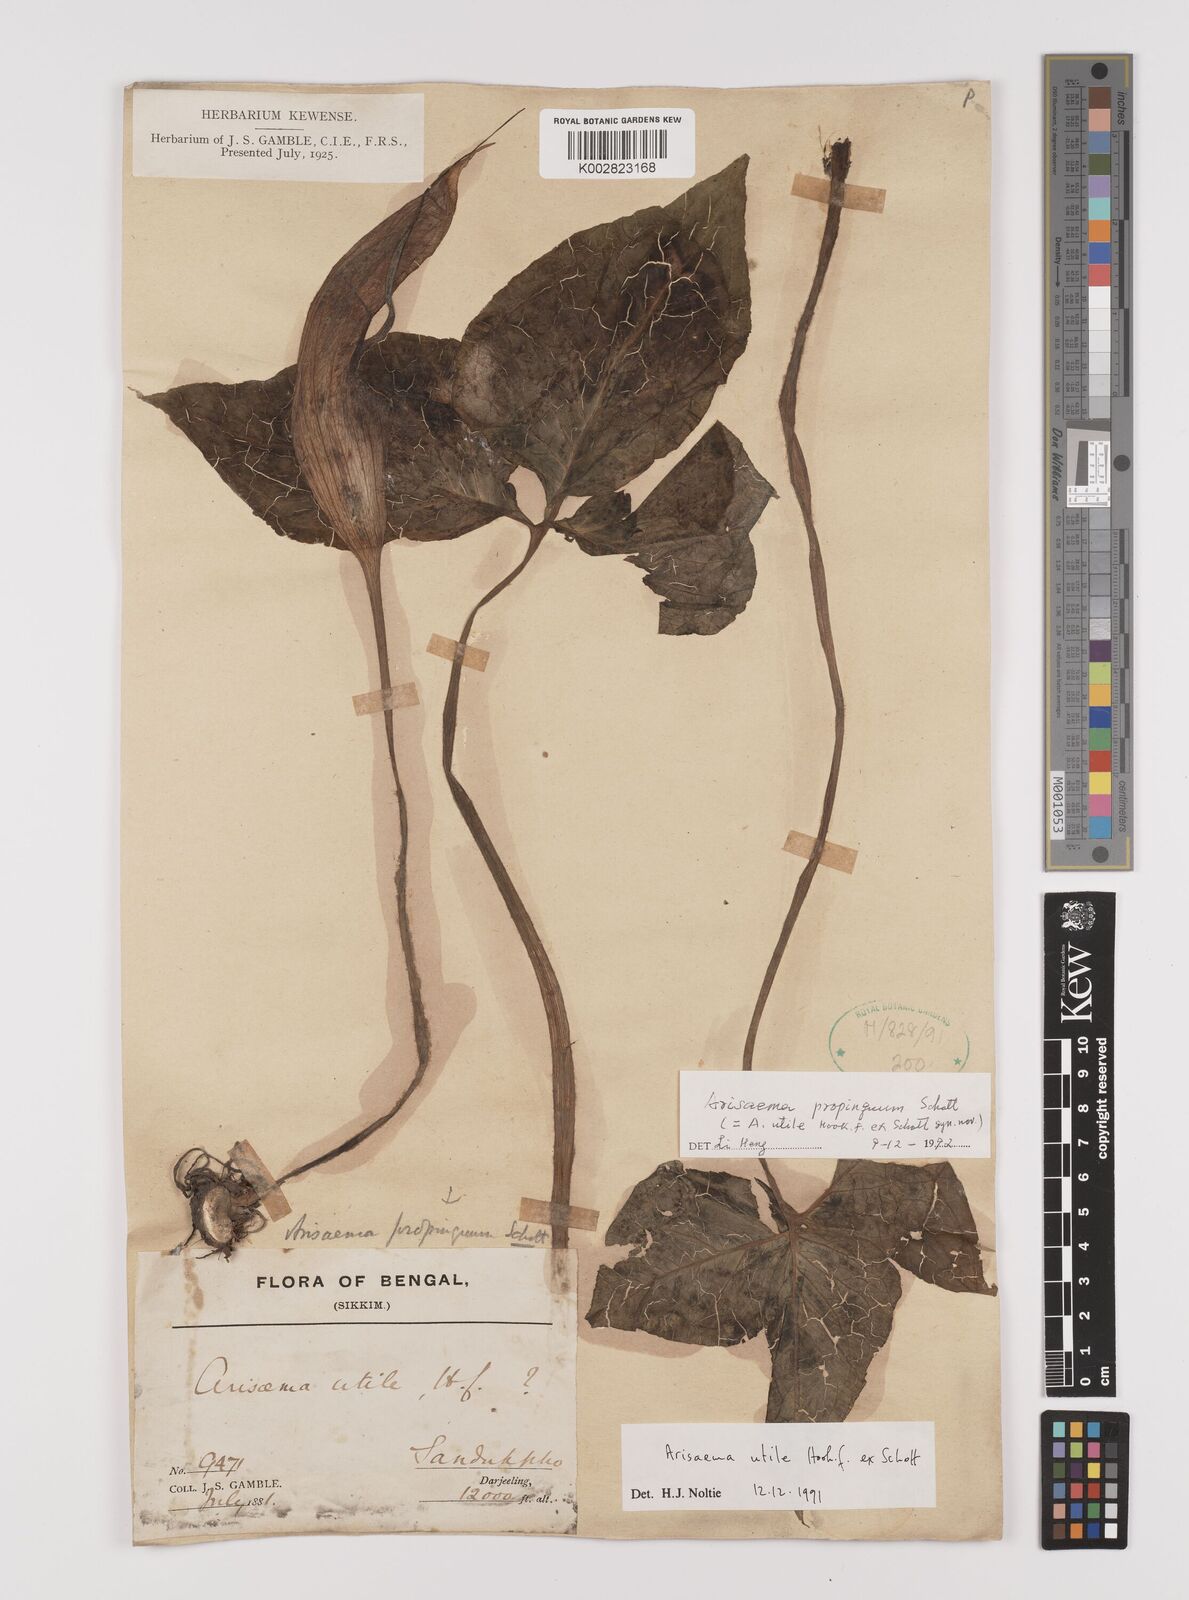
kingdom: Plantae
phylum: Tracheophyta
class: Liliopsida
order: Alismatales
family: Araceae
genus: Arisaema
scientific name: Arisaema propinquum
